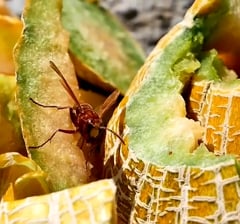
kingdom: Animalia
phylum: Arthropoda
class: Insecta
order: Hymenoptera
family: Vespidae
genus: Vespa
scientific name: Vespa orientalis
